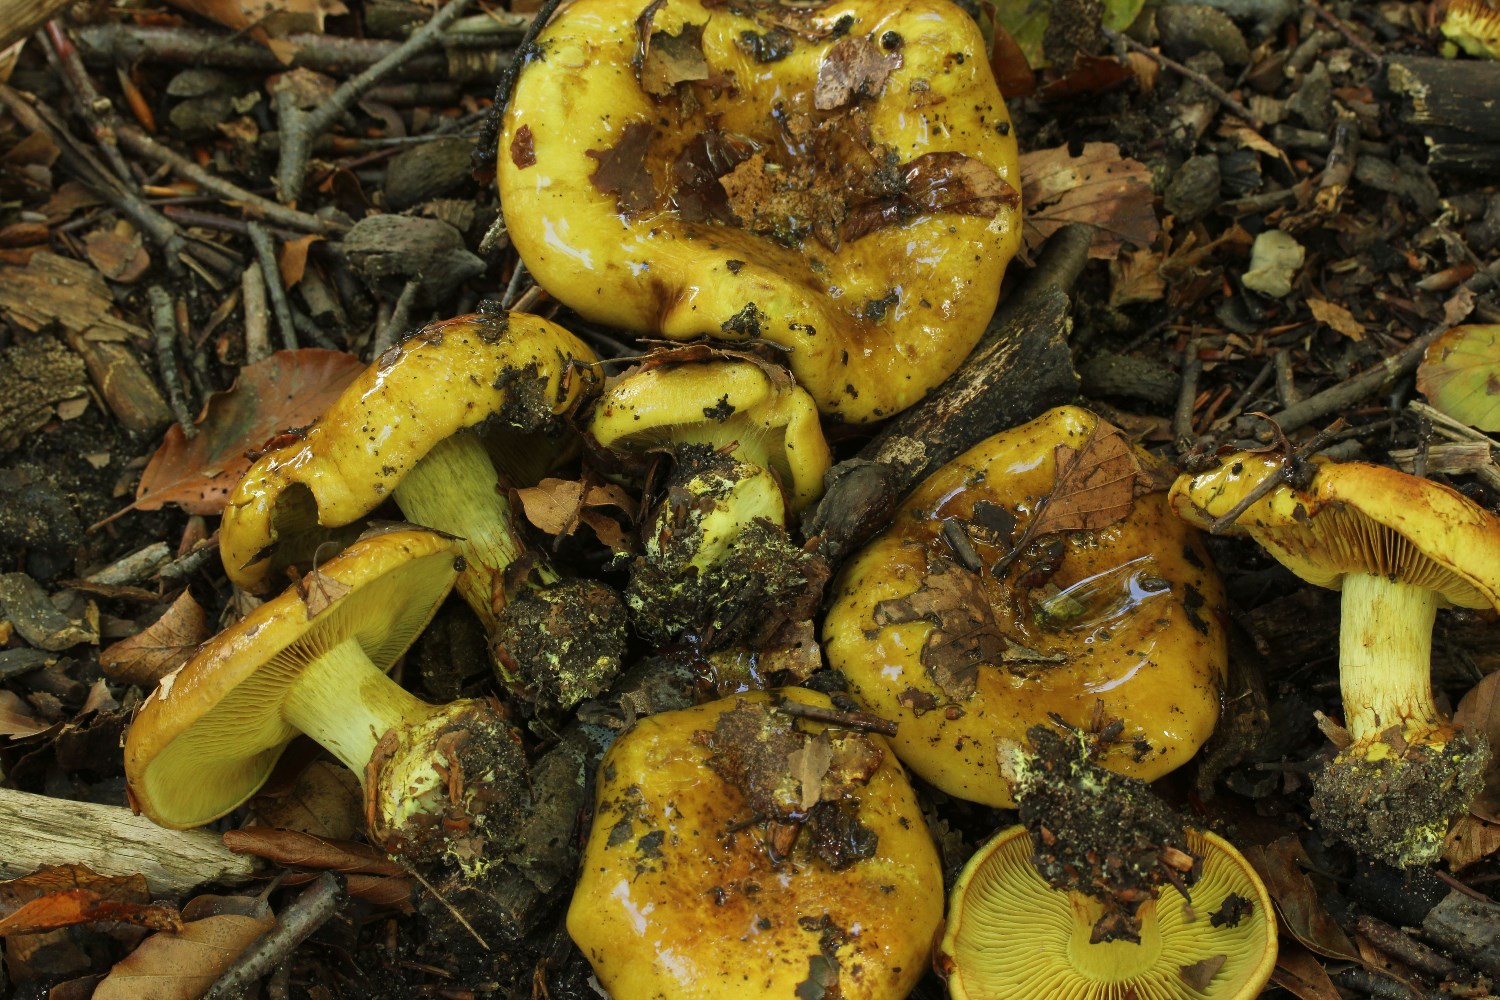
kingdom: Fungi
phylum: Basidiomycota
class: Agaricomycetes
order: Agaricales
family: Cortinariaceae
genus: Calonarius
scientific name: Calonarius citrinus
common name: citrongul slørhat
